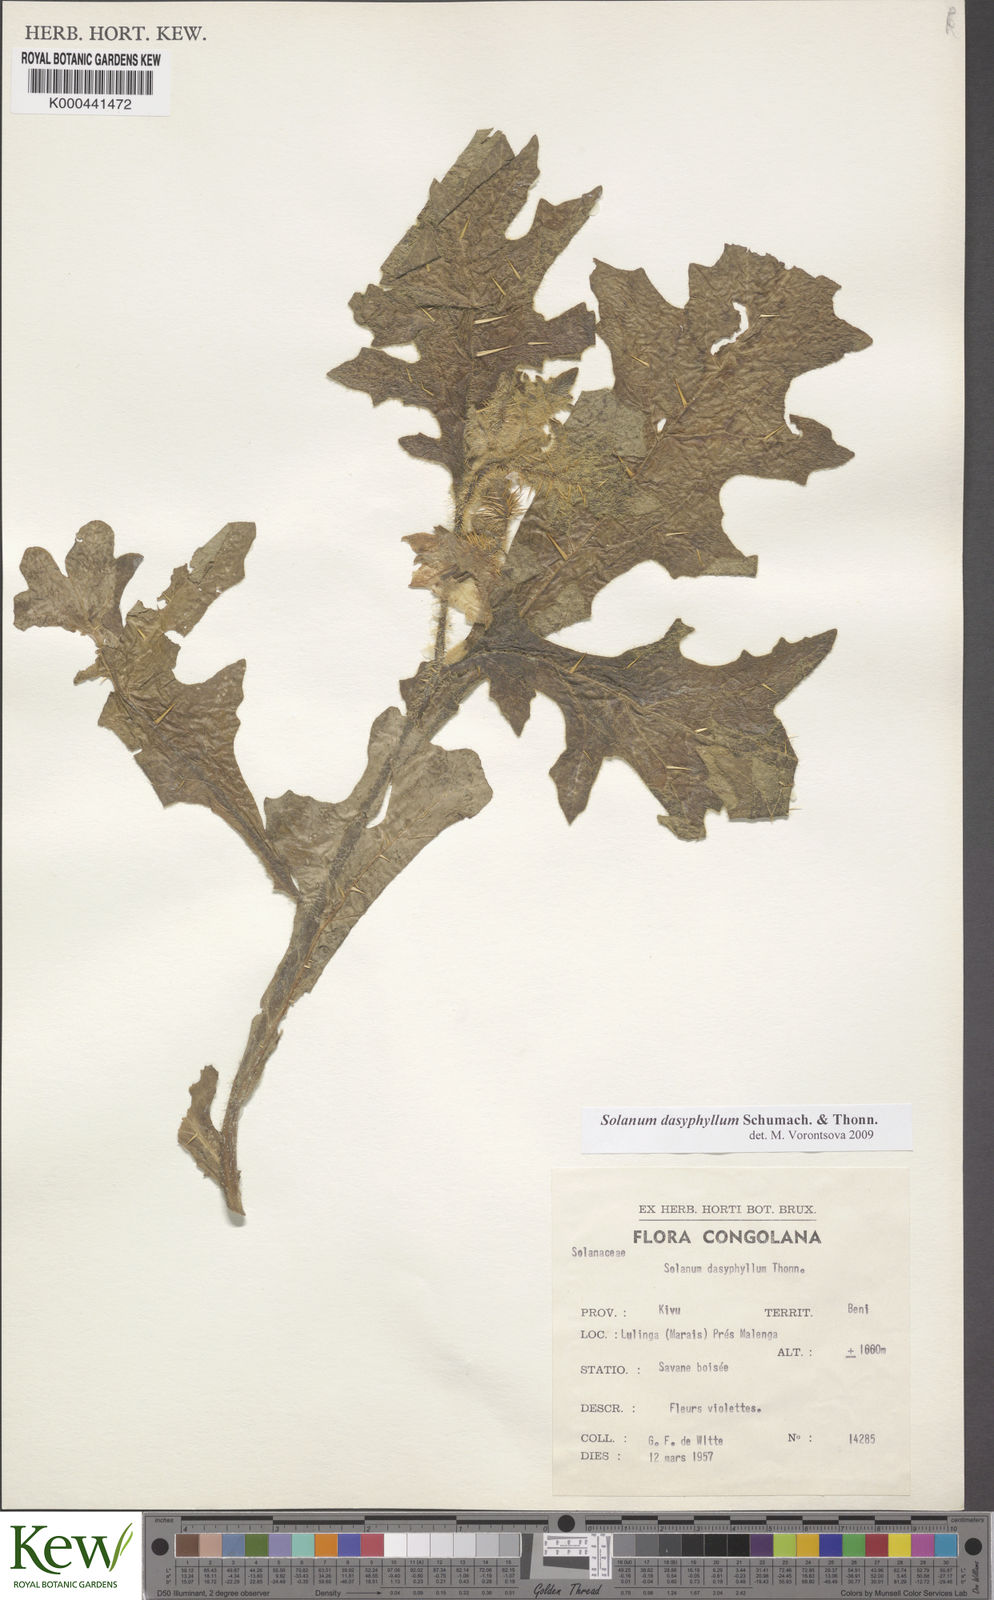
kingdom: Plantae
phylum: Tracheophyta
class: Magnoliopsida
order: Solanales
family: Solanaceae
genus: Solanum
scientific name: Solanum dasyphyllum
